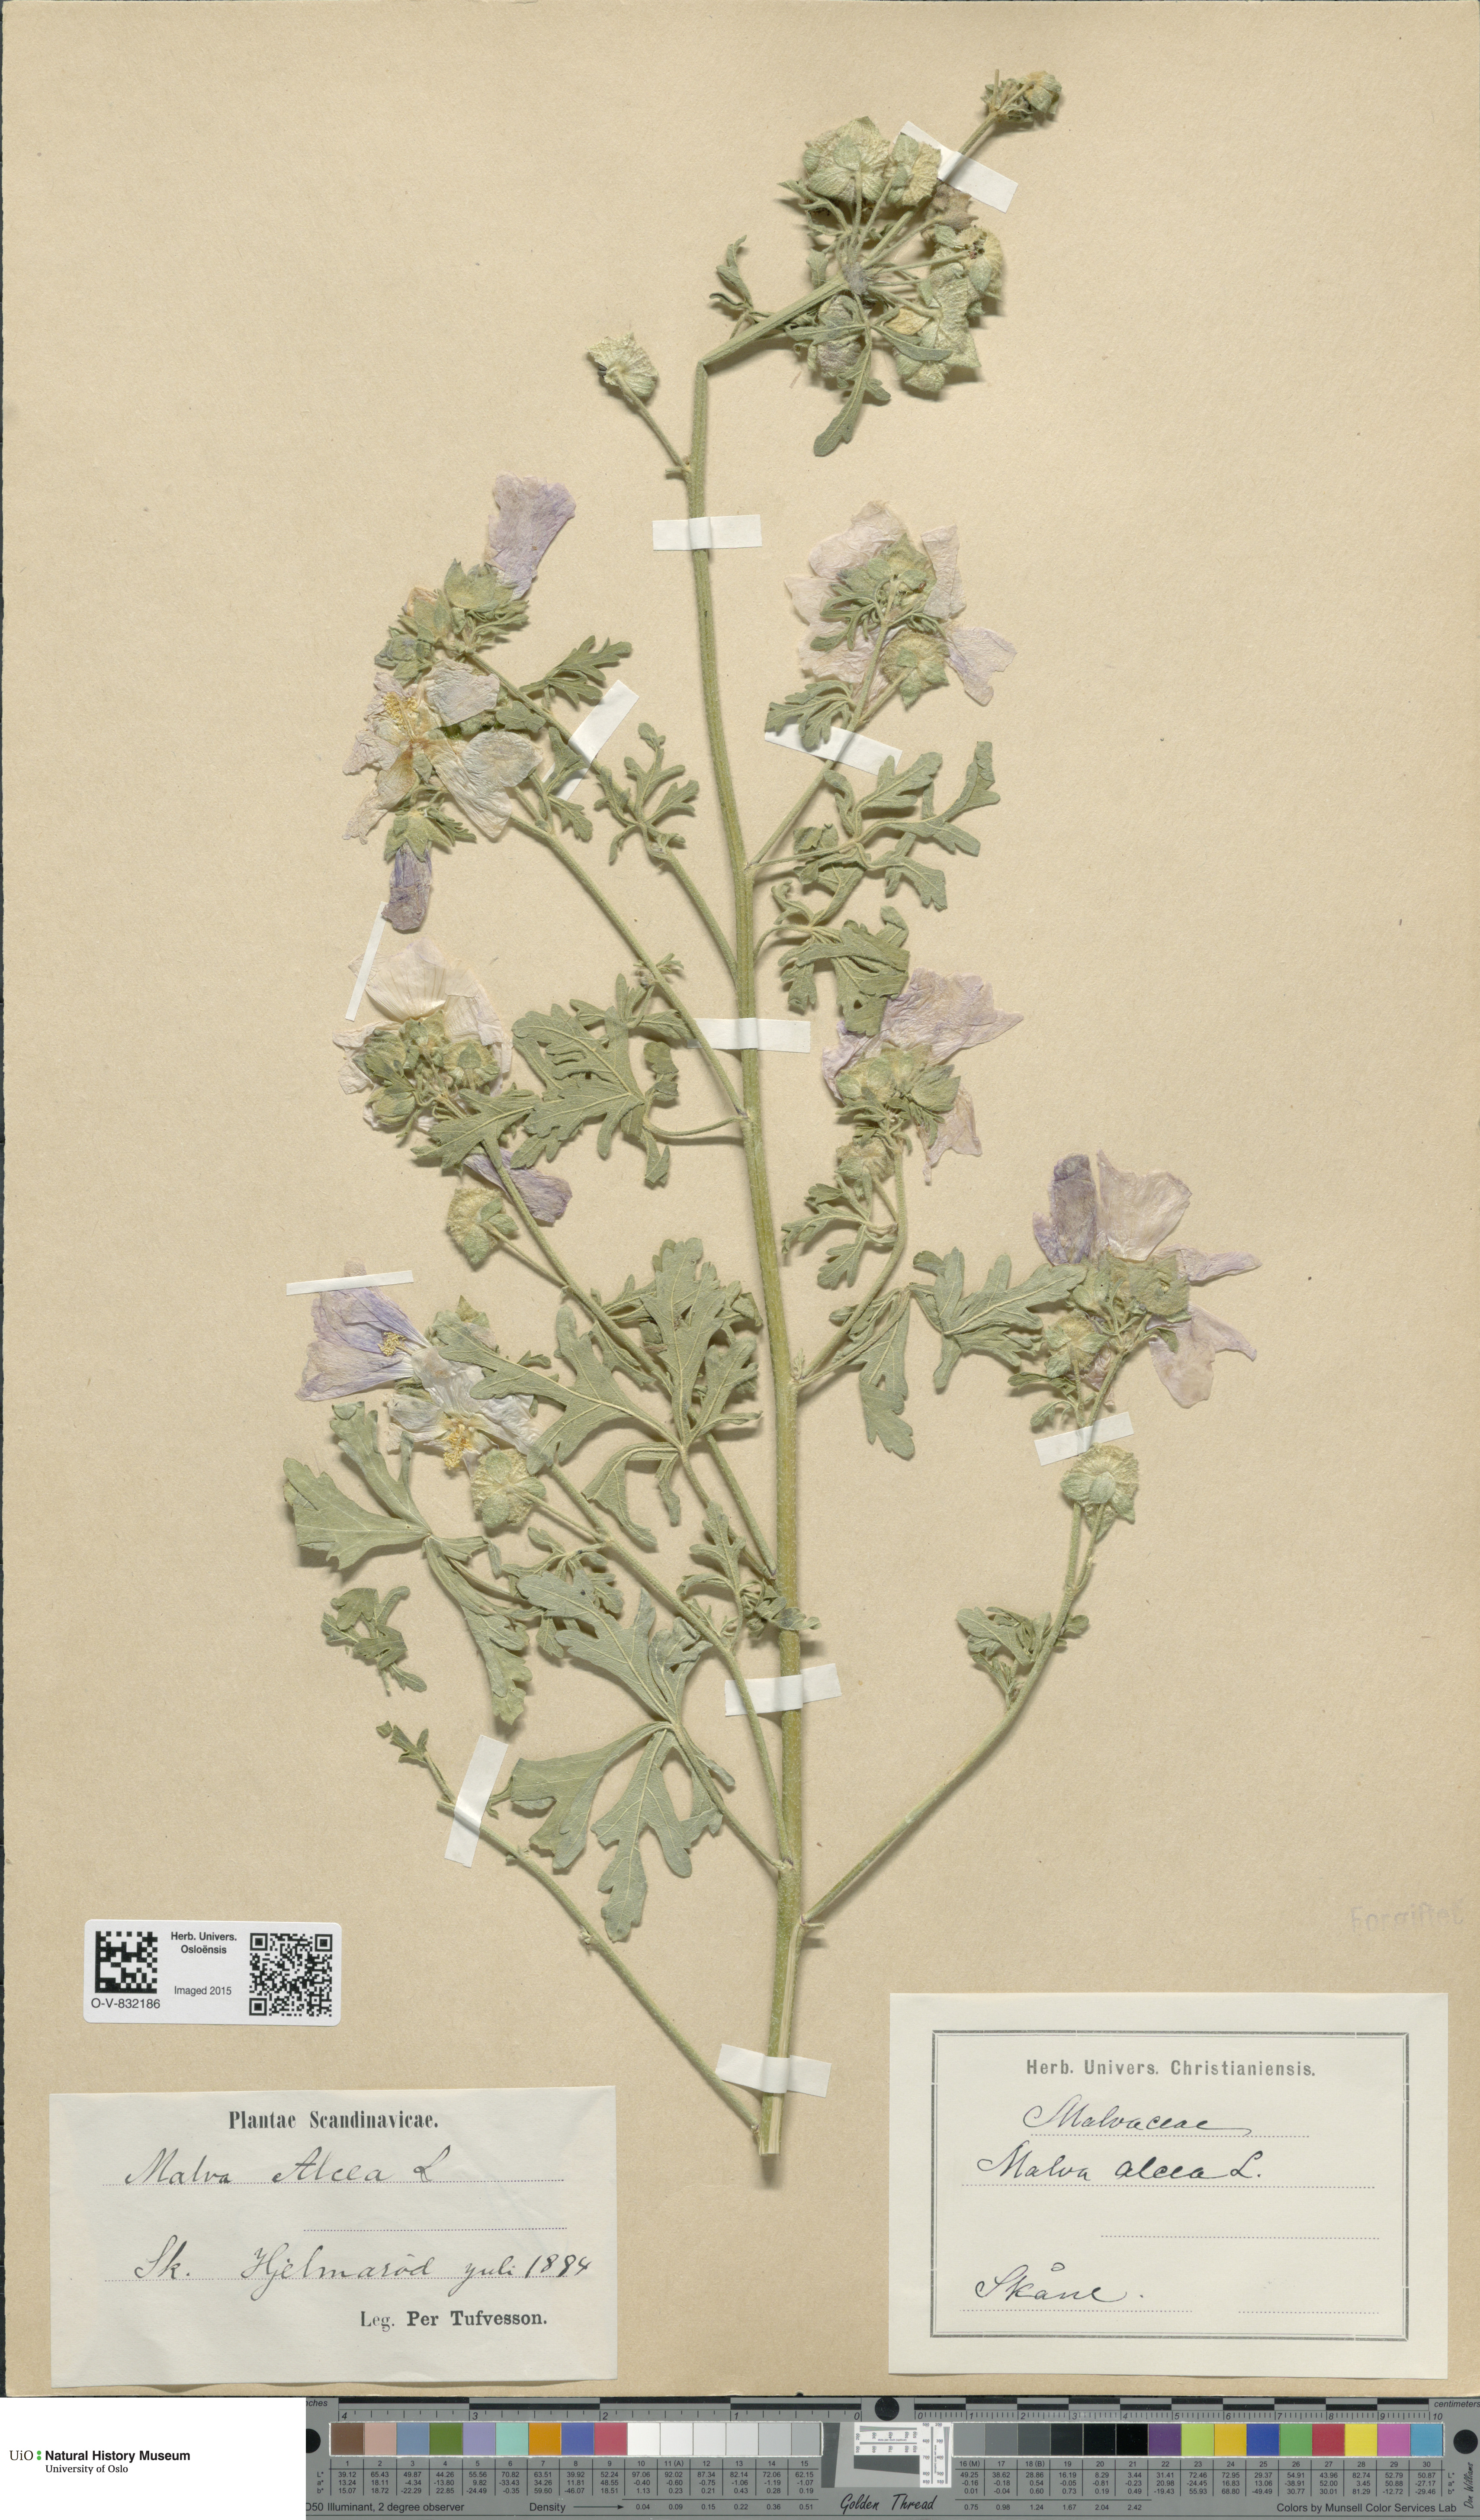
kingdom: Plantae
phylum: Tracheophyta
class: Magnoliopsida
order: Malvales
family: Malvaceae
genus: Malva
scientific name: Malva alcea
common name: Greater musk-mallow
